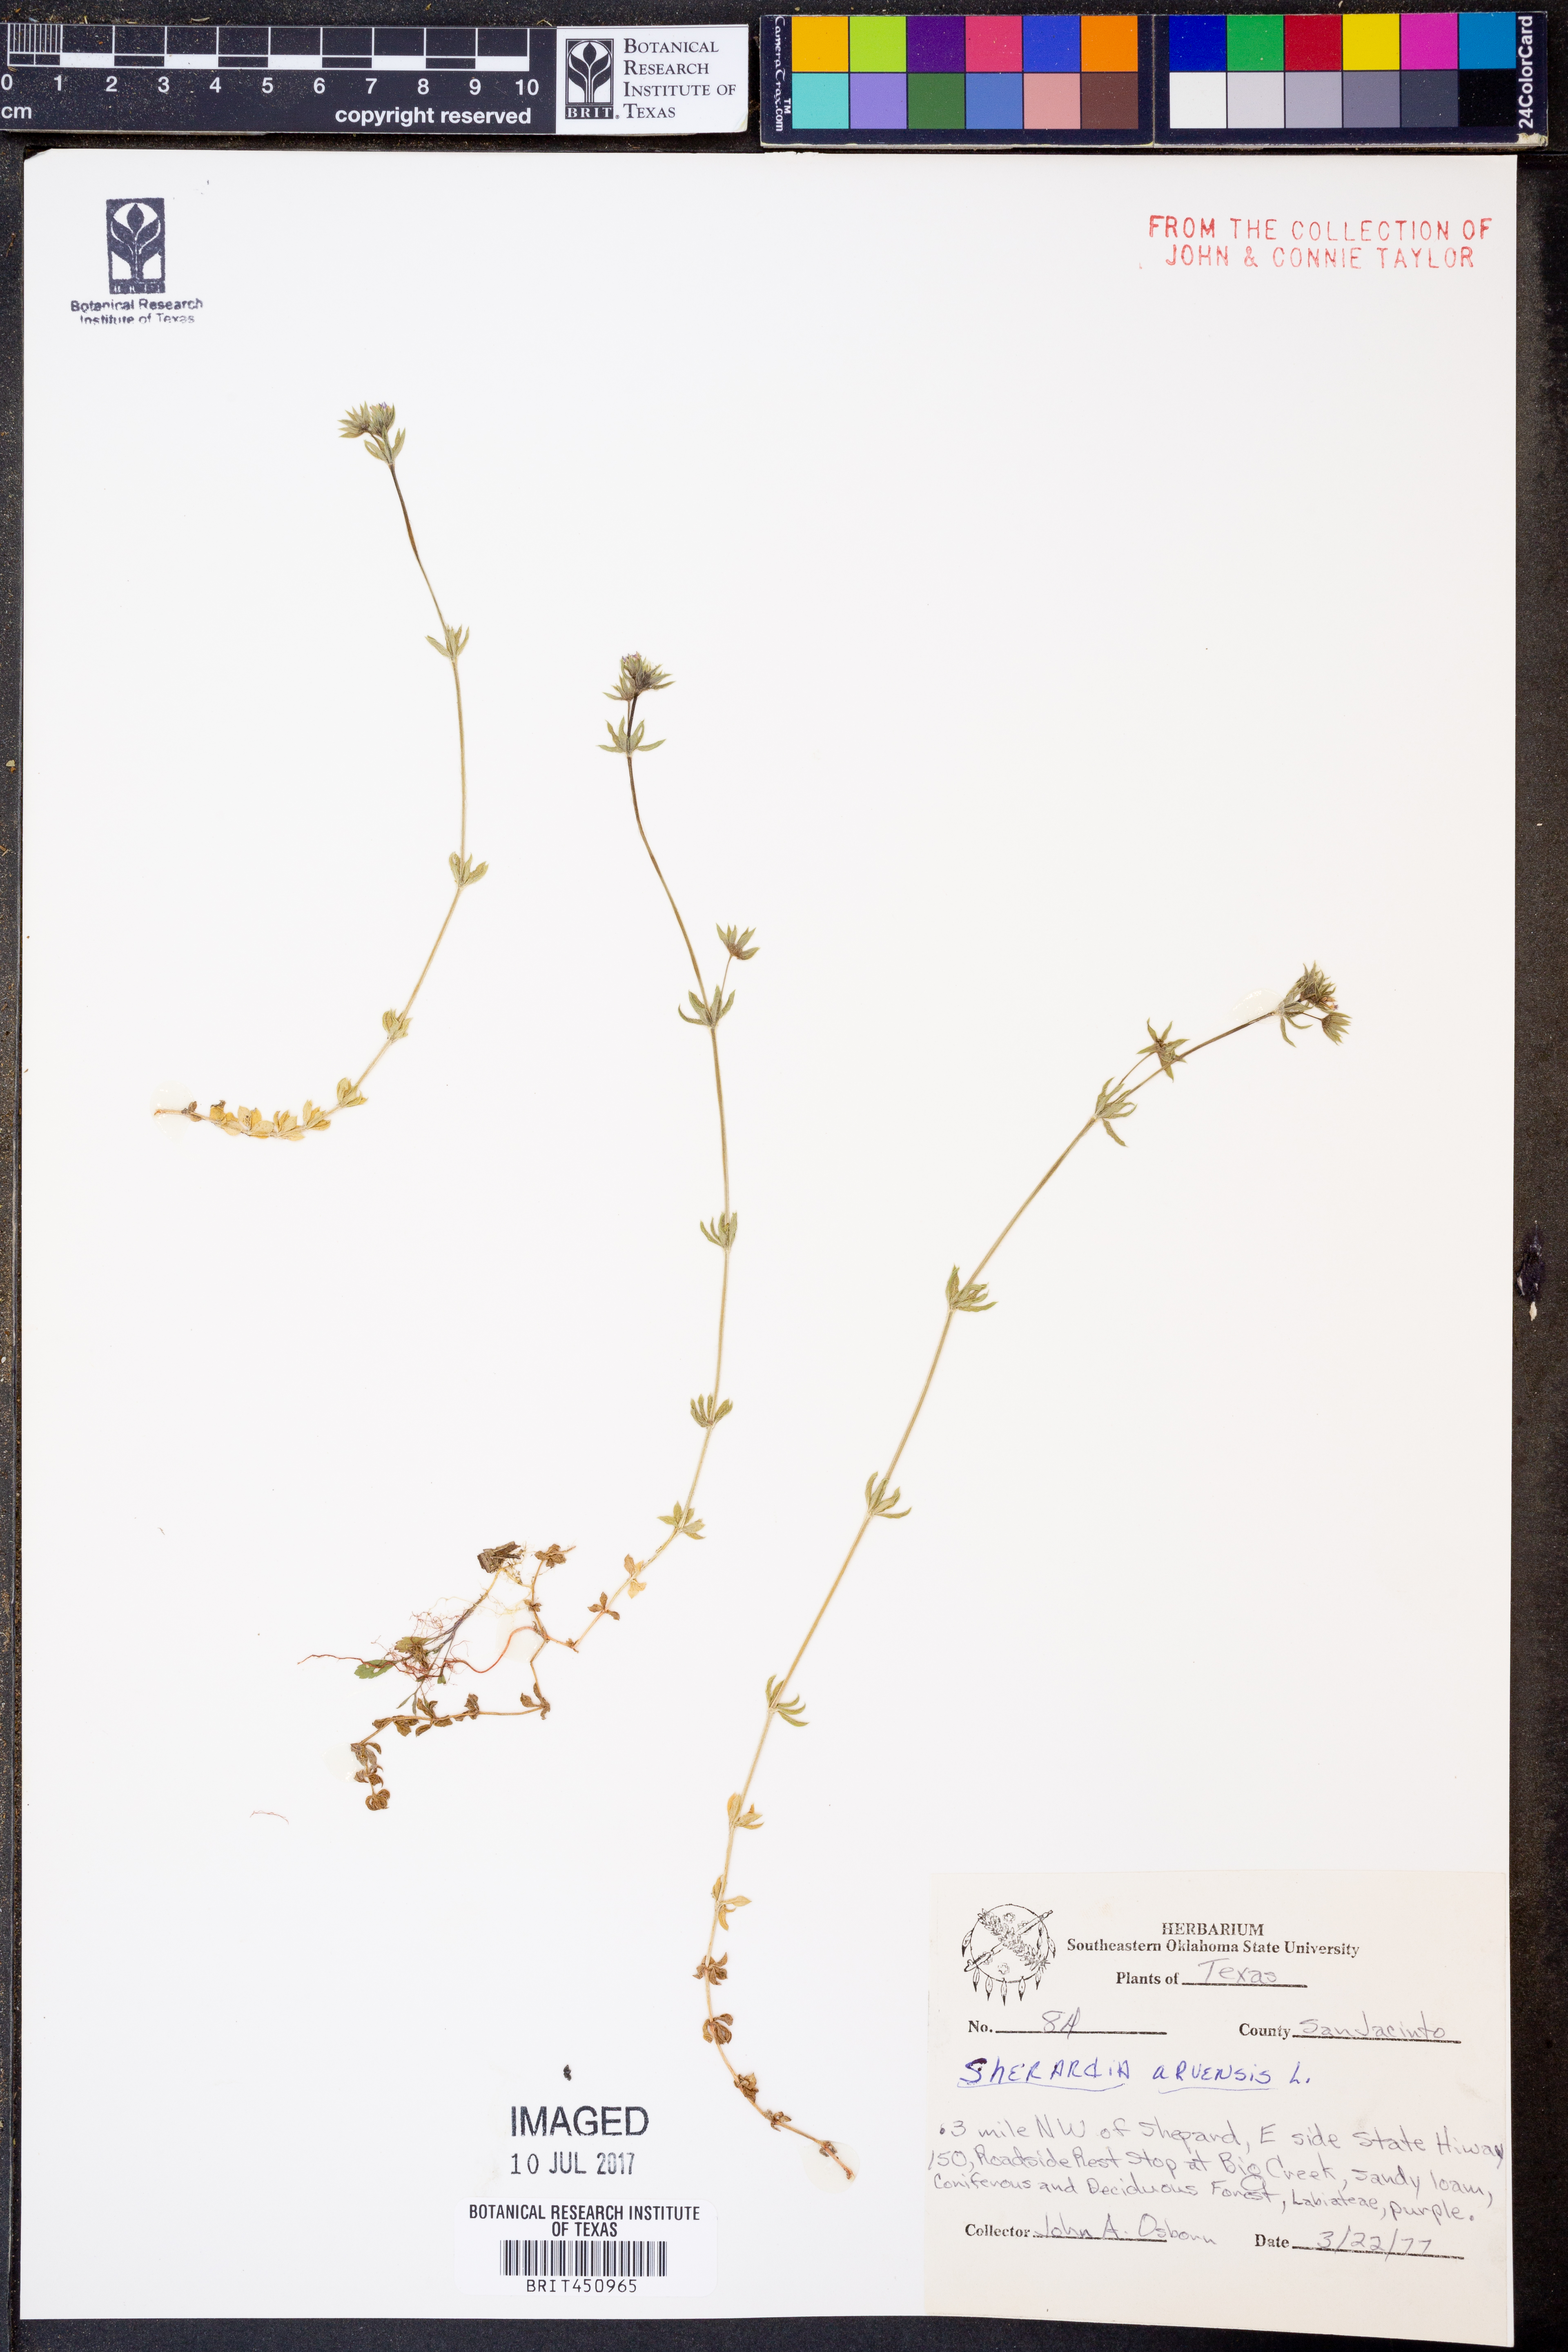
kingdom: Plantae
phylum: Tracheophyta
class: Magnoliopsida
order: Gentianales
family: Rubiaceae
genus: Sherardia
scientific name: Sherardia arvensis
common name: Field madder
